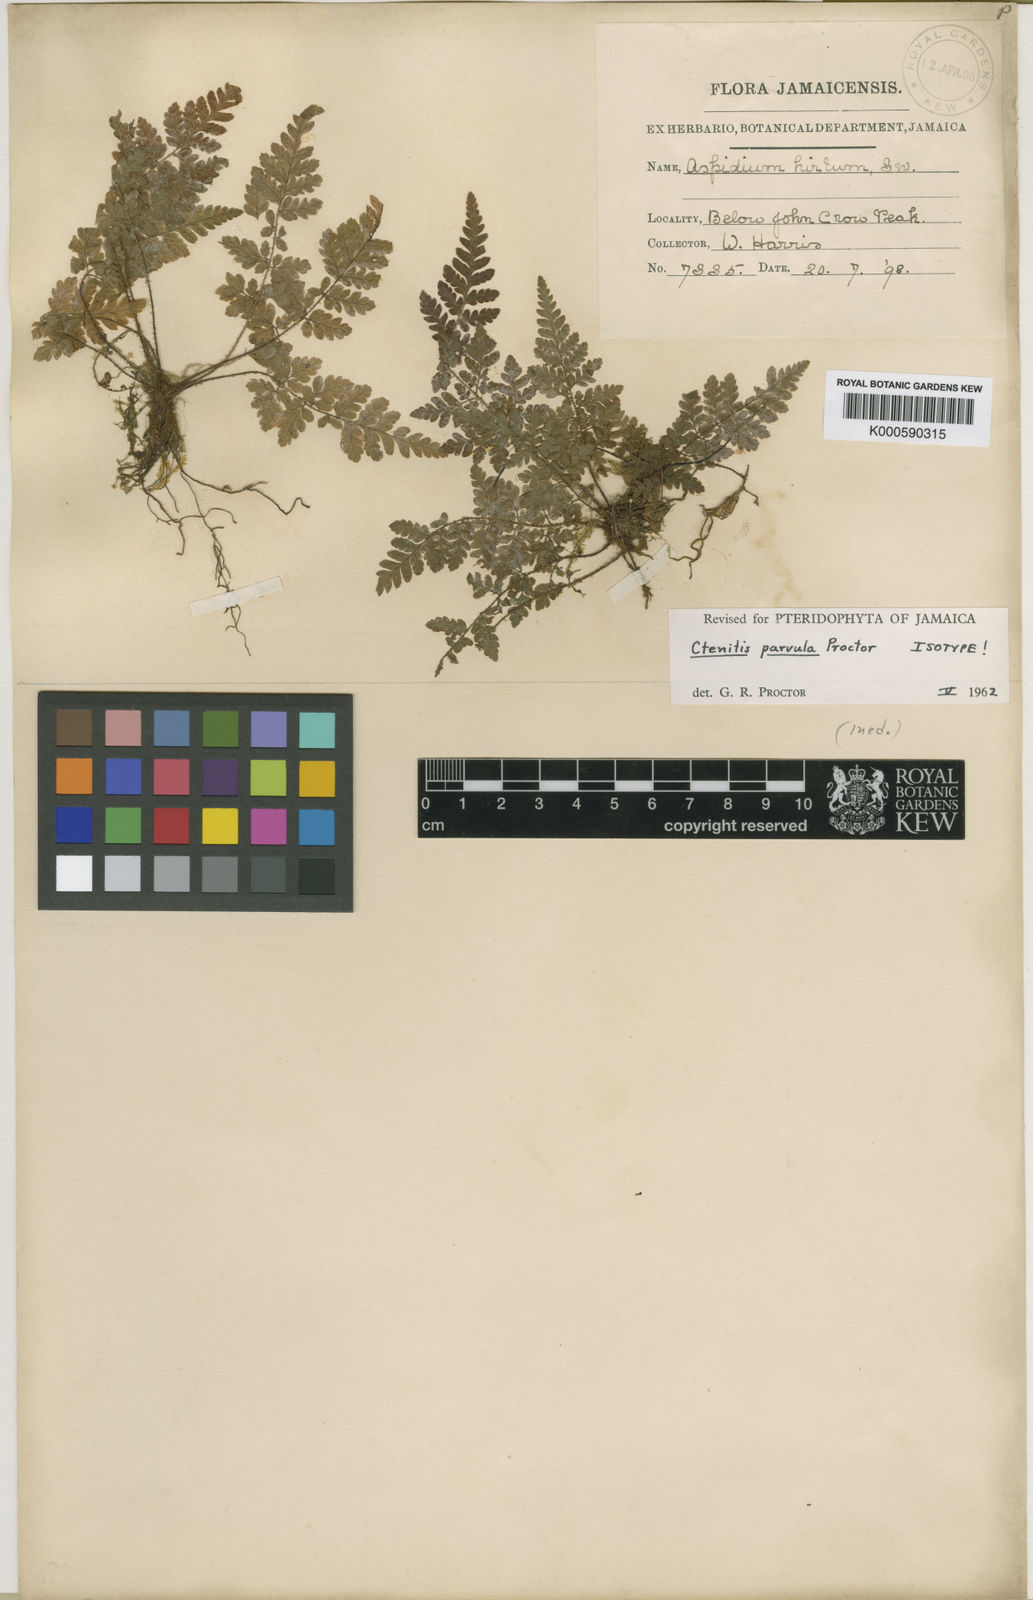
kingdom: Plantae
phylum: Tracheophyta
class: Polypodiopsida
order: Polypodiales
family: Dryopteridaceae
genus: Ctenitis
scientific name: Ctenitis parvula
